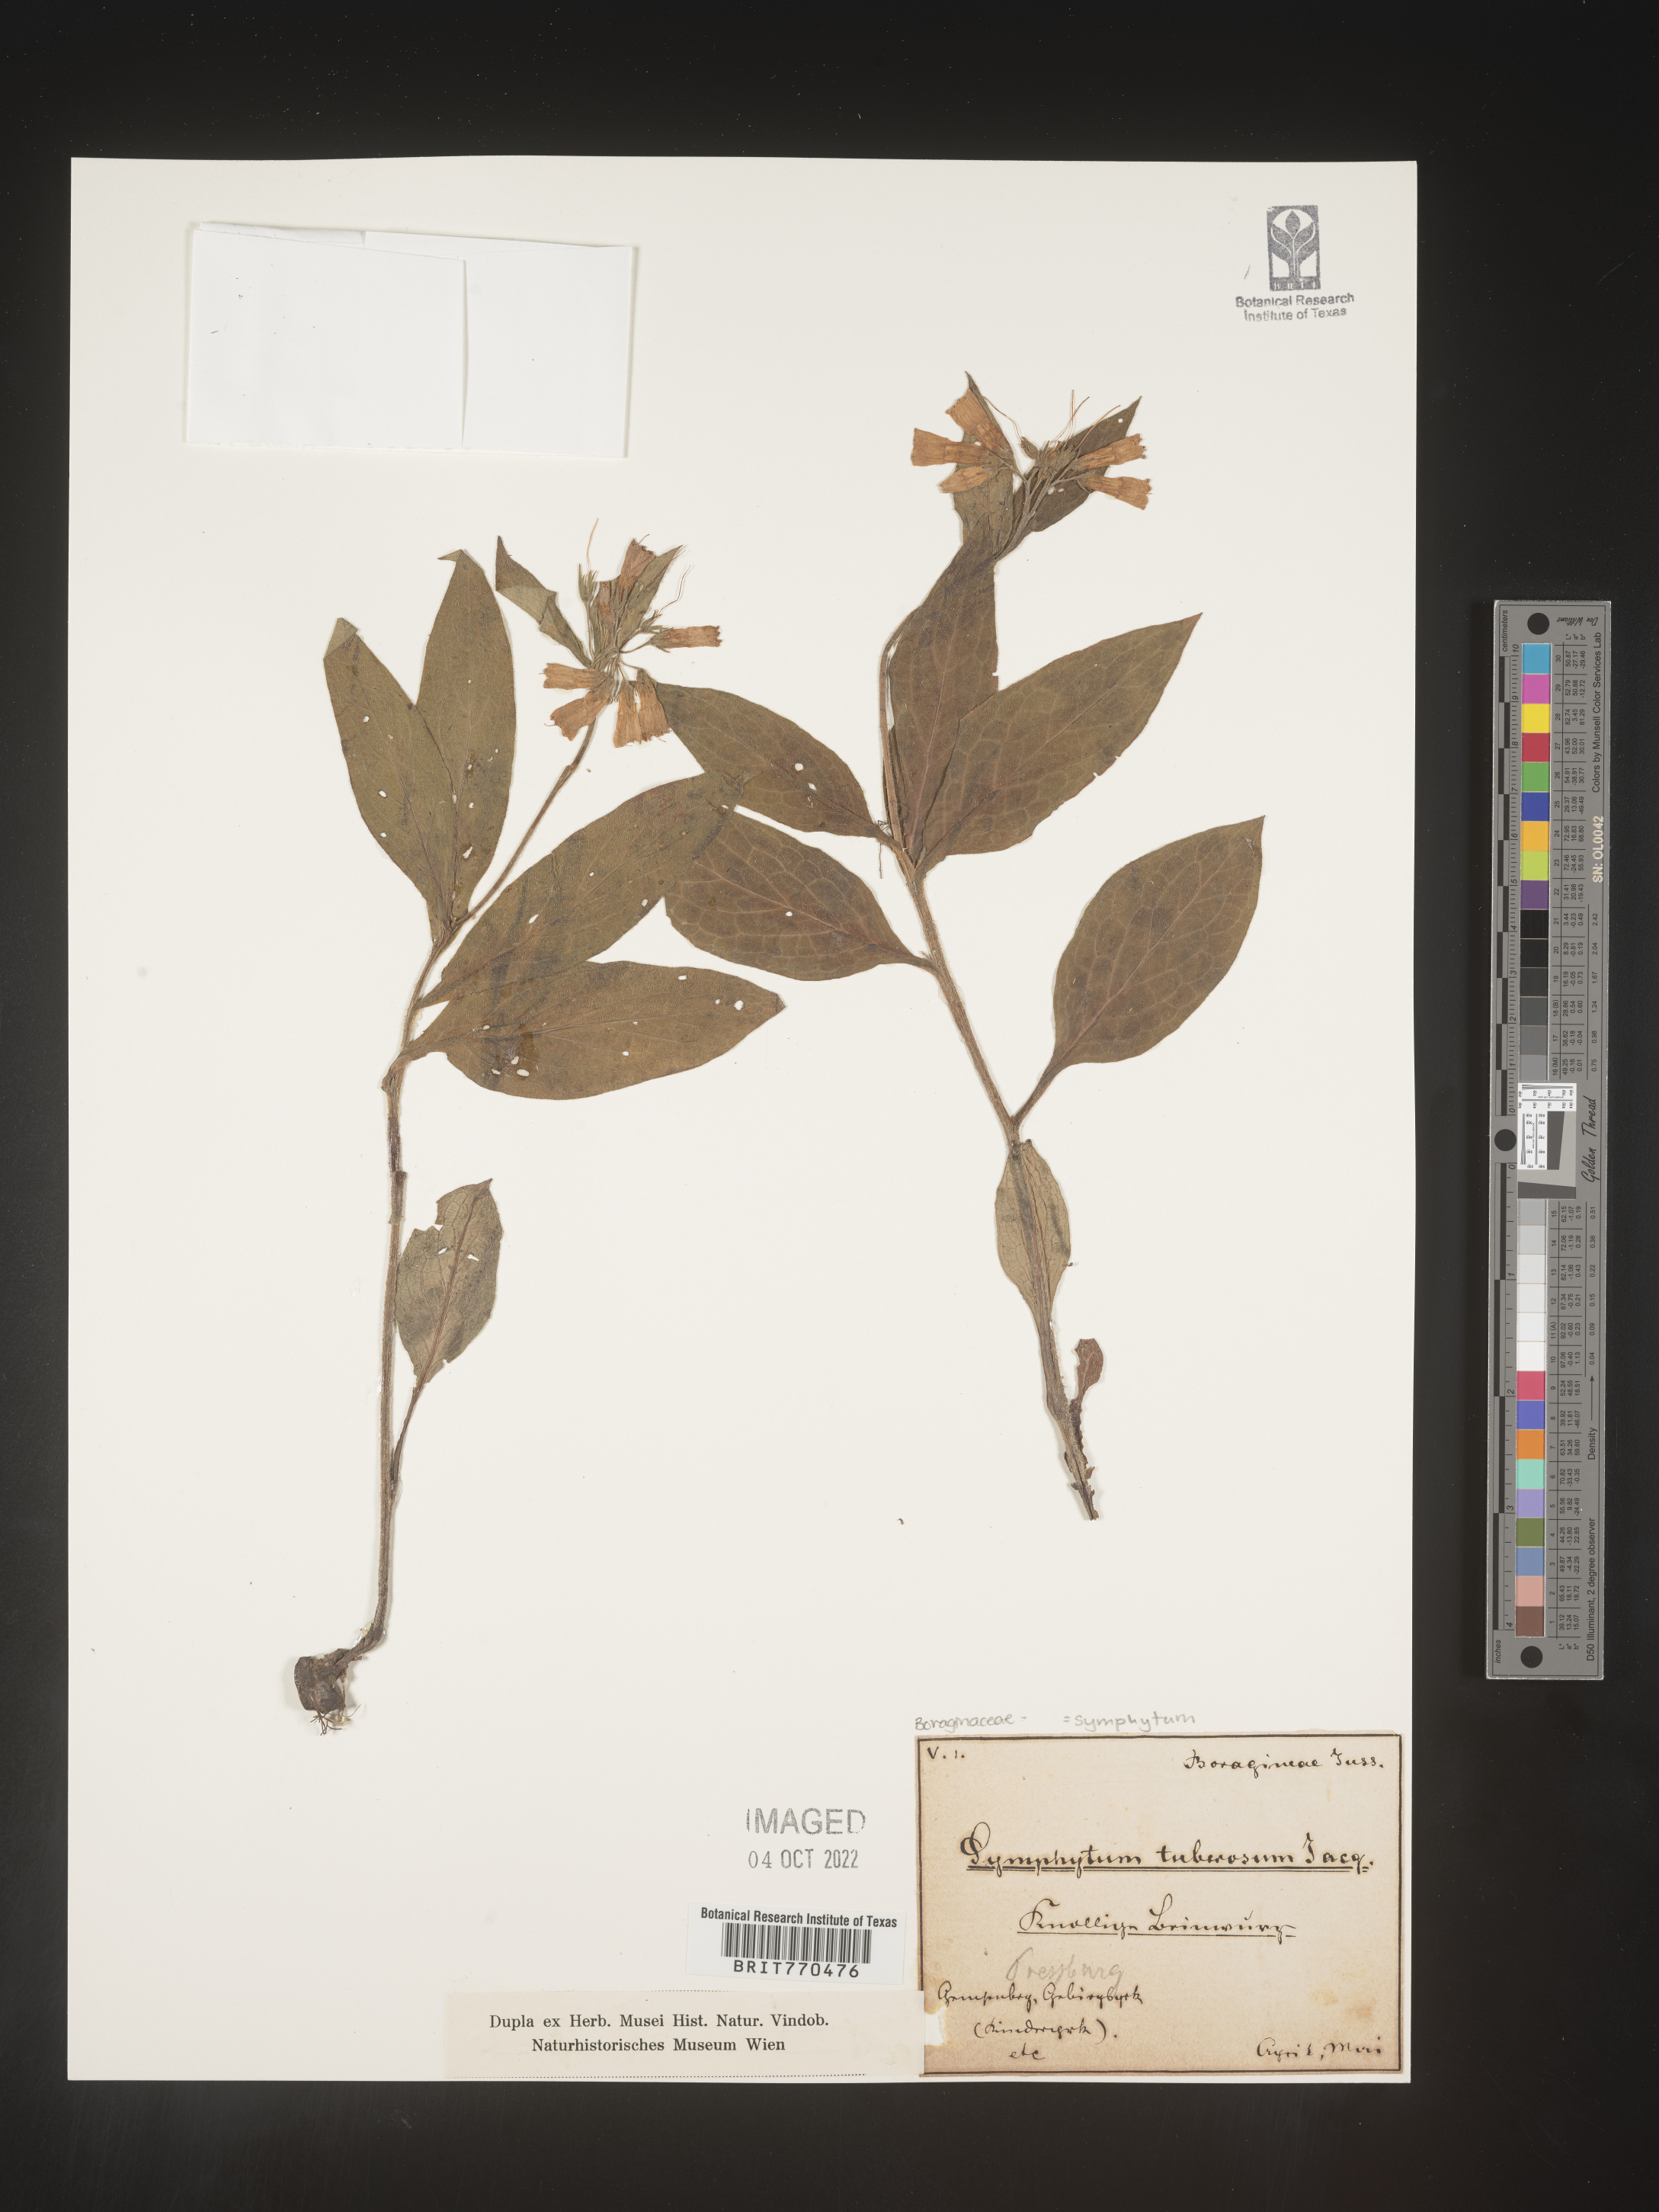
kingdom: Plantae
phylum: Tracheophyta
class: Magnoliopsida
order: Boraginales
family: Boraginaceae
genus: Symphytum
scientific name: Symphytum
